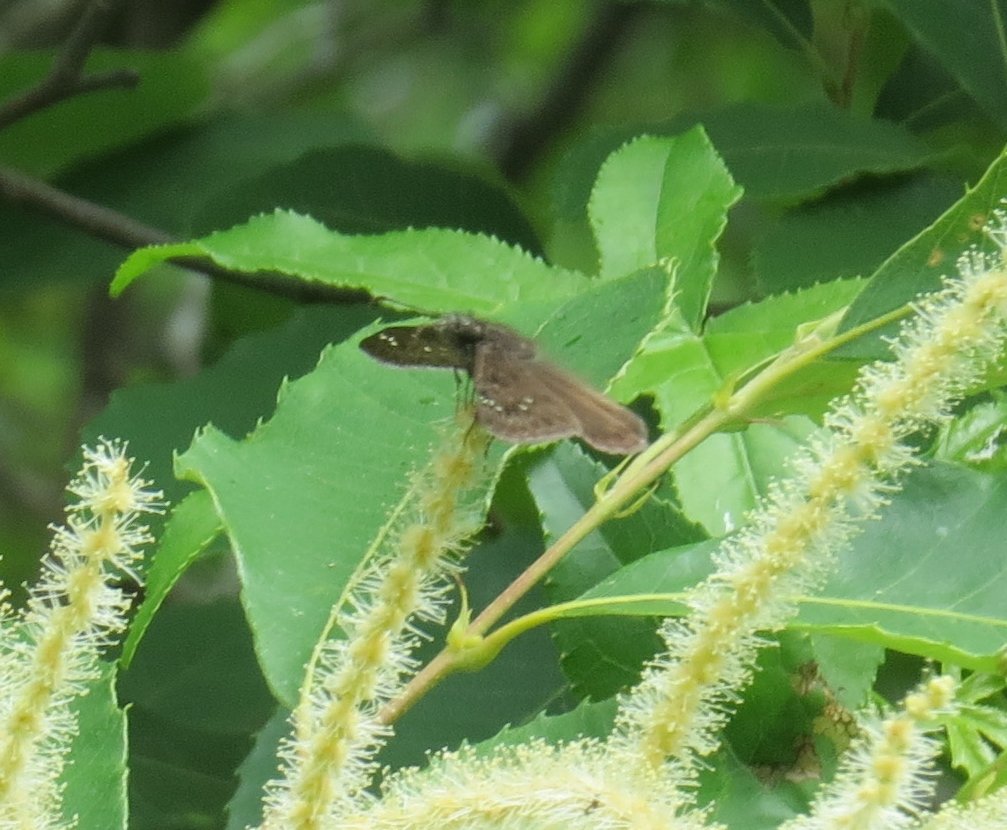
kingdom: Animalia
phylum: Arthropoda
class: Insecta
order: Lepidoptera
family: Hesperiidae
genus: Gesta
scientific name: Gesta
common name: Horace's Duskywing
